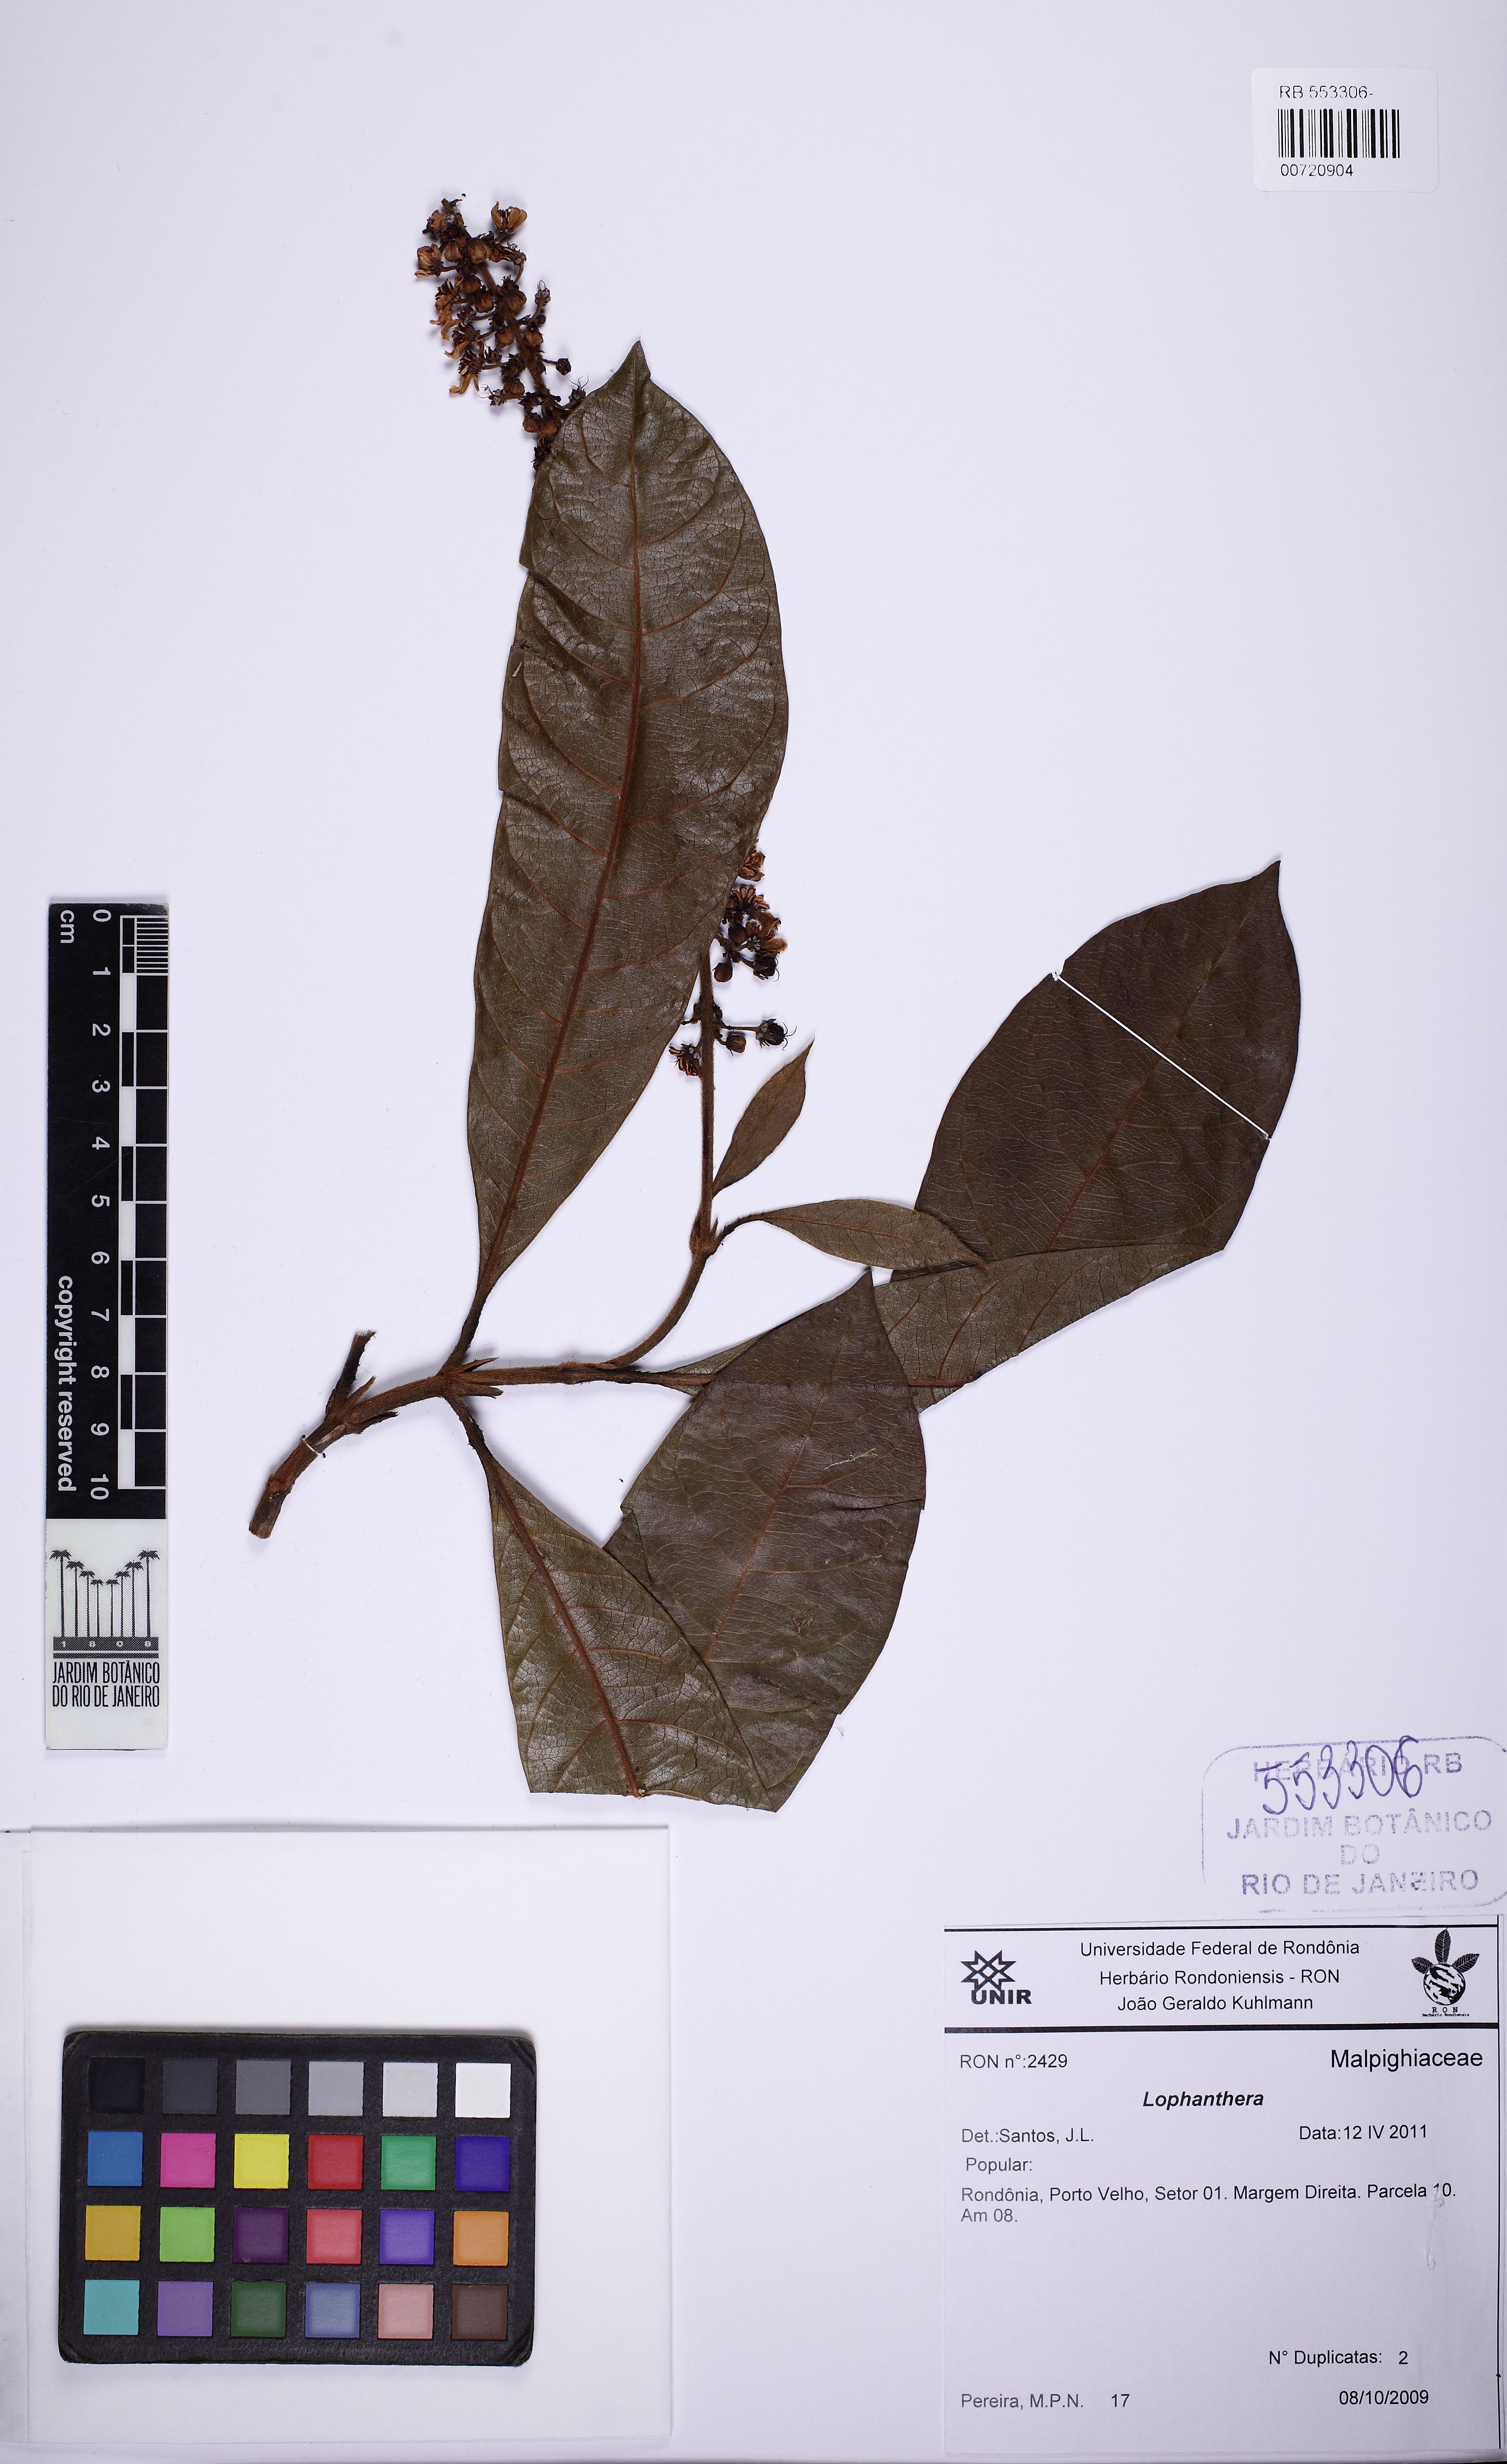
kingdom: Plantae
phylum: Tracheophyta
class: Magnoliopsida
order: Malpighiales
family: Malpighiaceae
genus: Lophanthera
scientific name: Lophanthera
